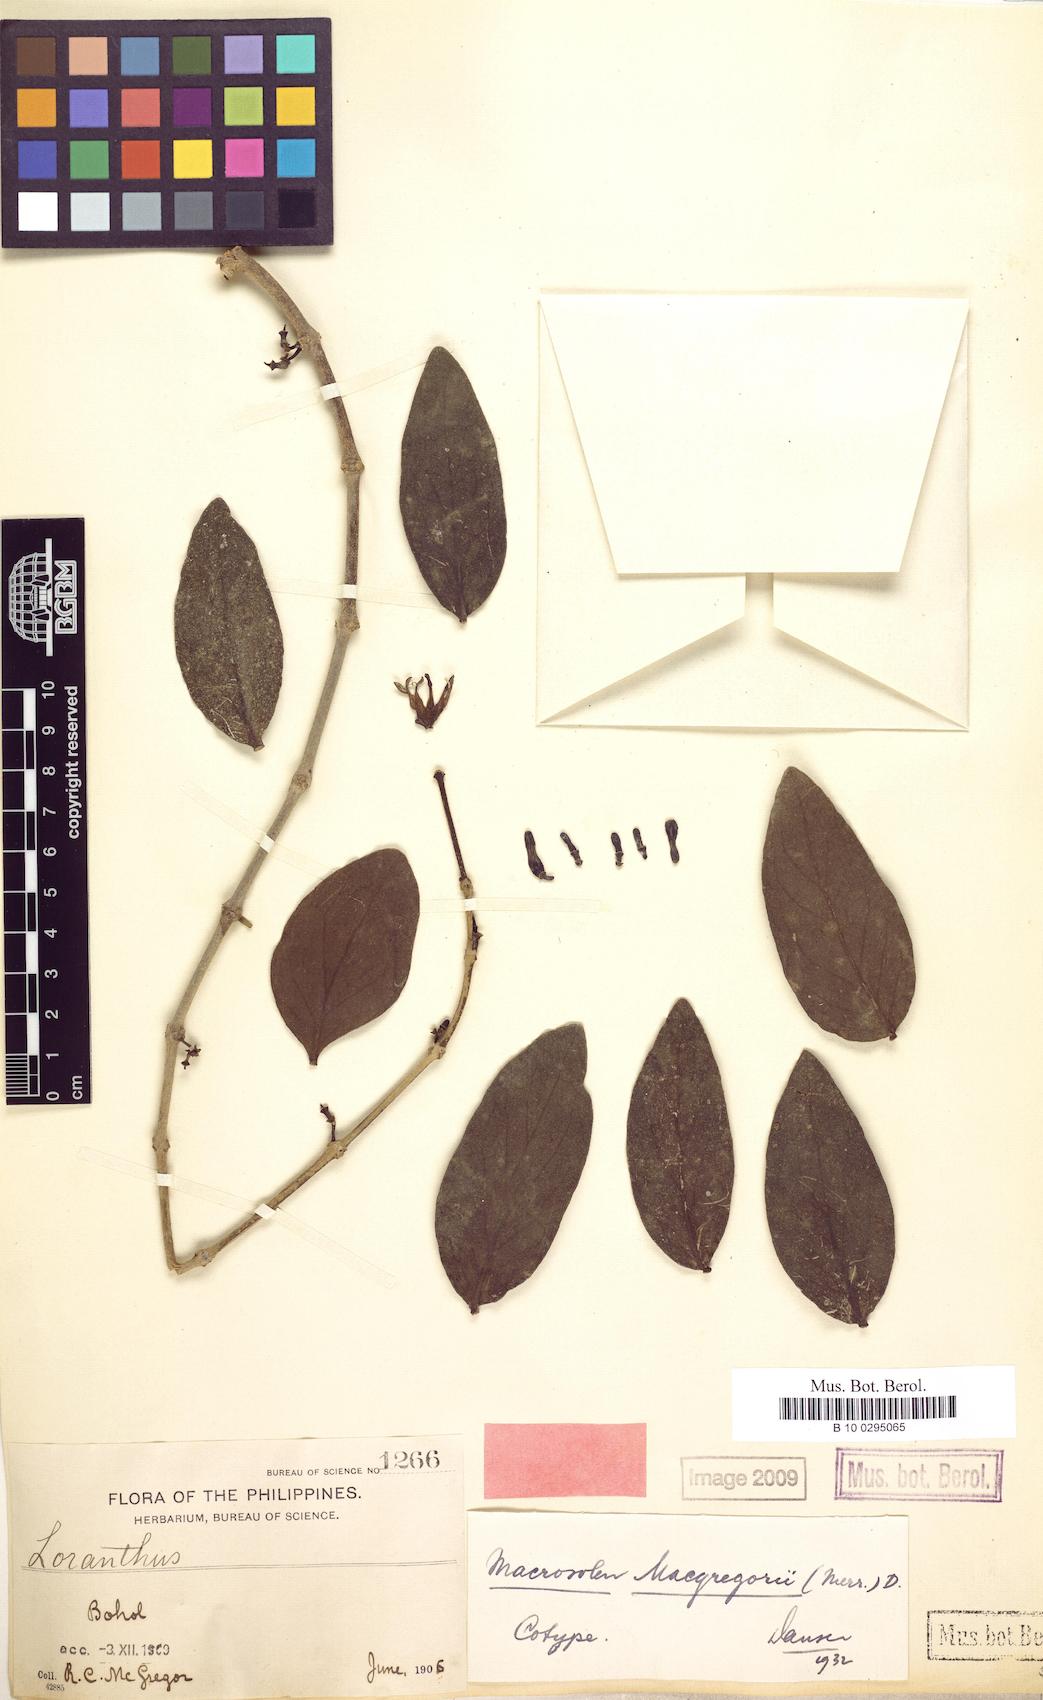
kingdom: Plantae
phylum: Tracheophyta
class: Magnoliopsida
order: Santalales
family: Loranthaceae
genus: Macrosolen
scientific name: Macrosolen geminatus
